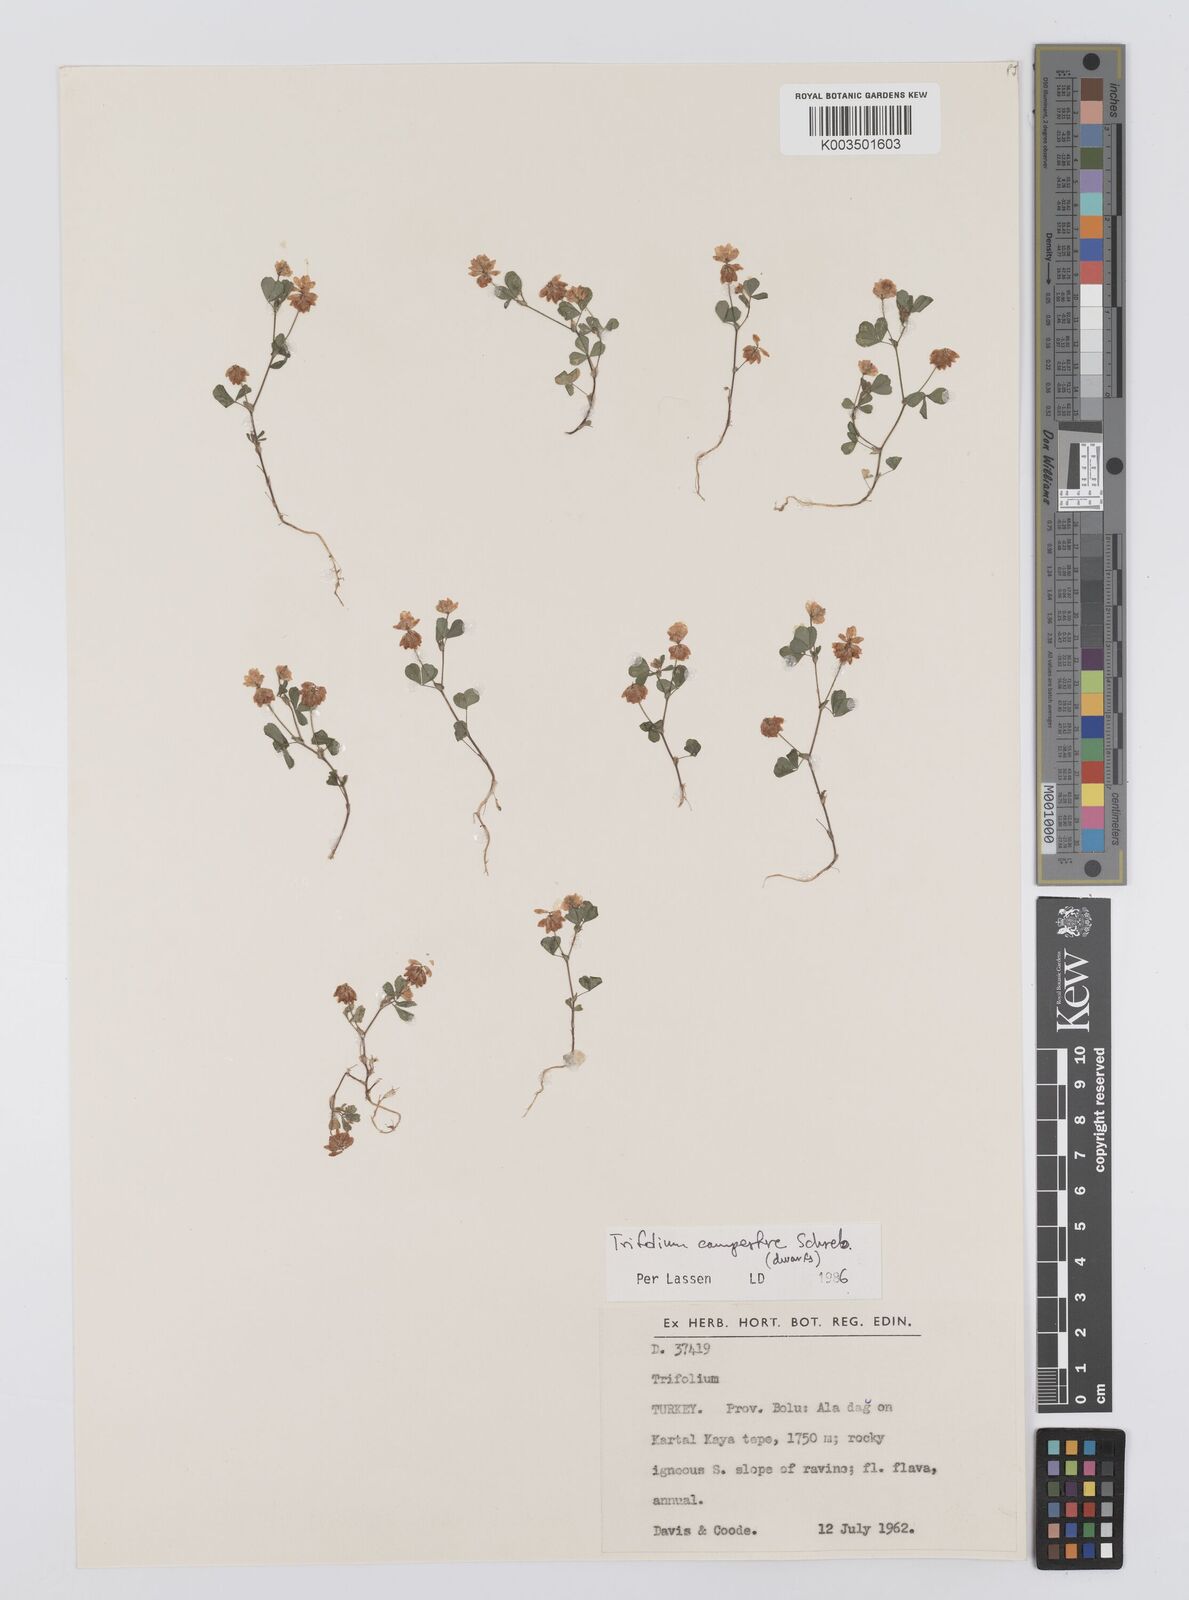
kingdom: Plantae
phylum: Tracheophyta
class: Magnoliopsida
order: Fabales
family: Fabaceae
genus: Trifolium
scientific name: Trifolium campestre
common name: Field clover
